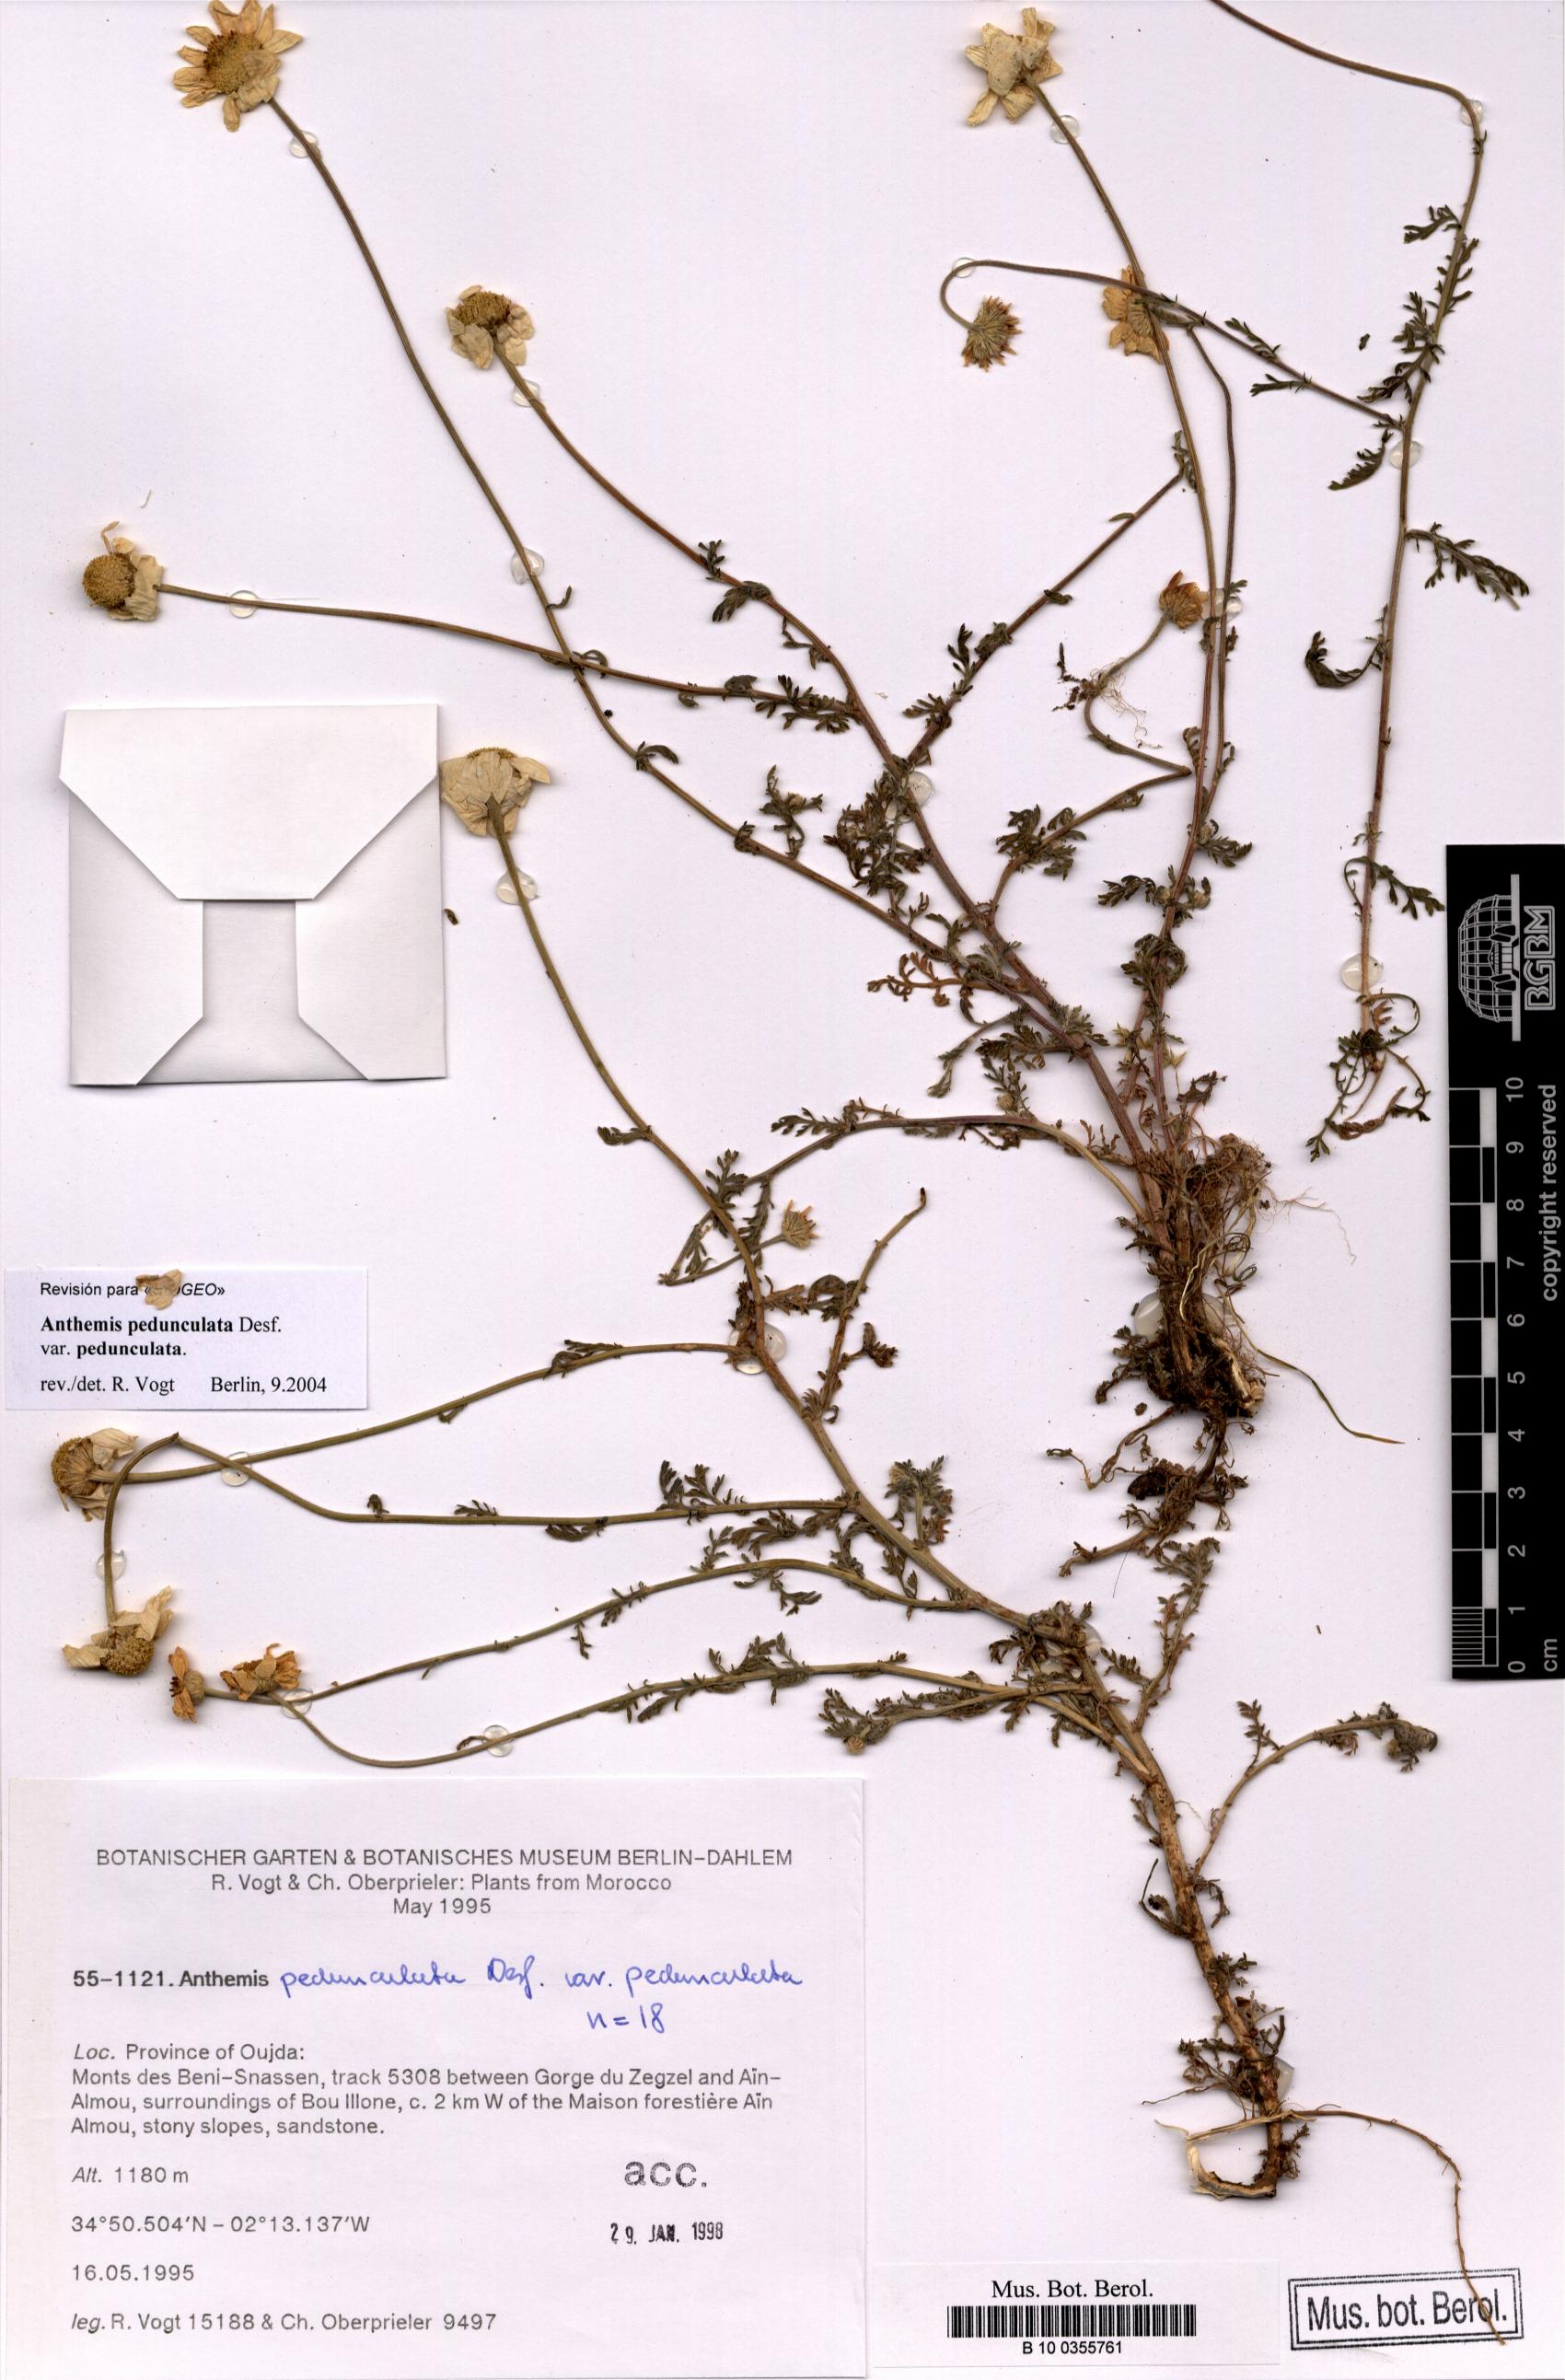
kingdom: Plantae
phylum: Tracheophyta
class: Magnoliopsida
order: Asterales
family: Asteraceae
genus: Anthemis
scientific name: Anthemis pedunculata
